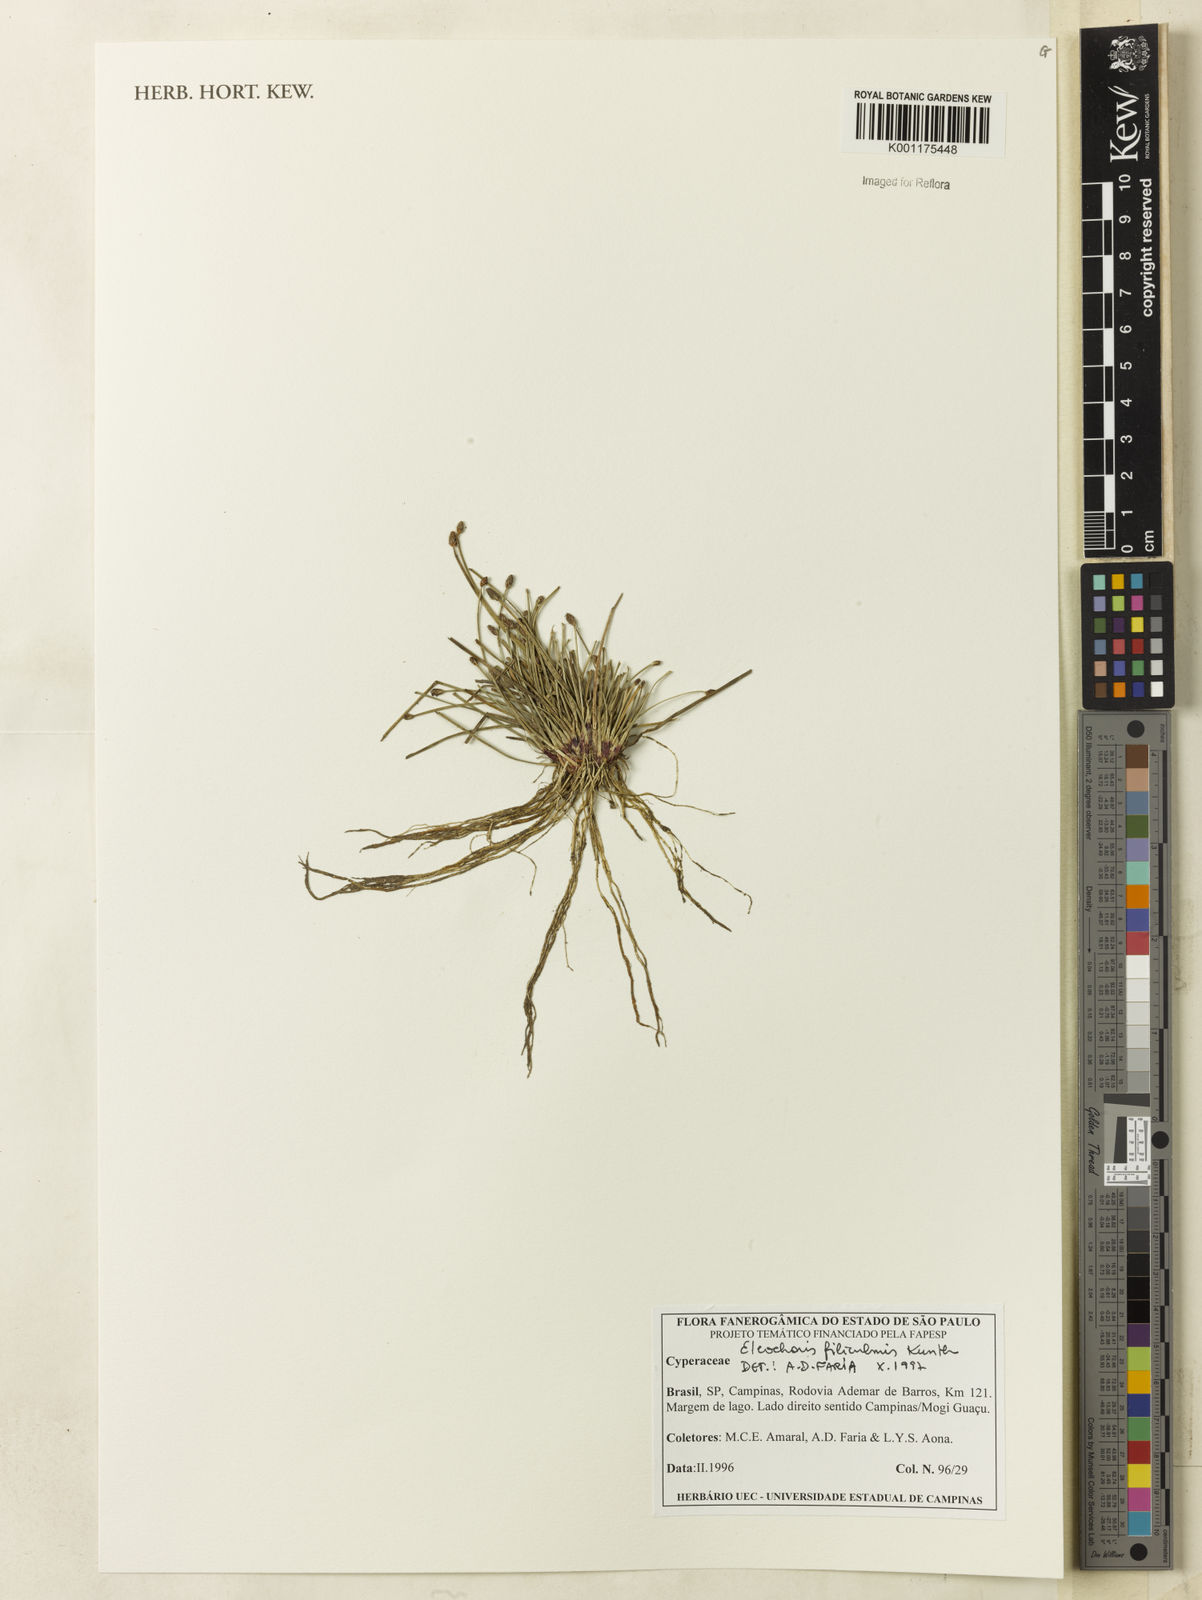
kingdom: Plantae
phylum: Tracheophyta
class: Liliopsida
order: Poales
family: Cyperaceae
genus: Eleocharis
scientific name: Eleocharis filiculmis
